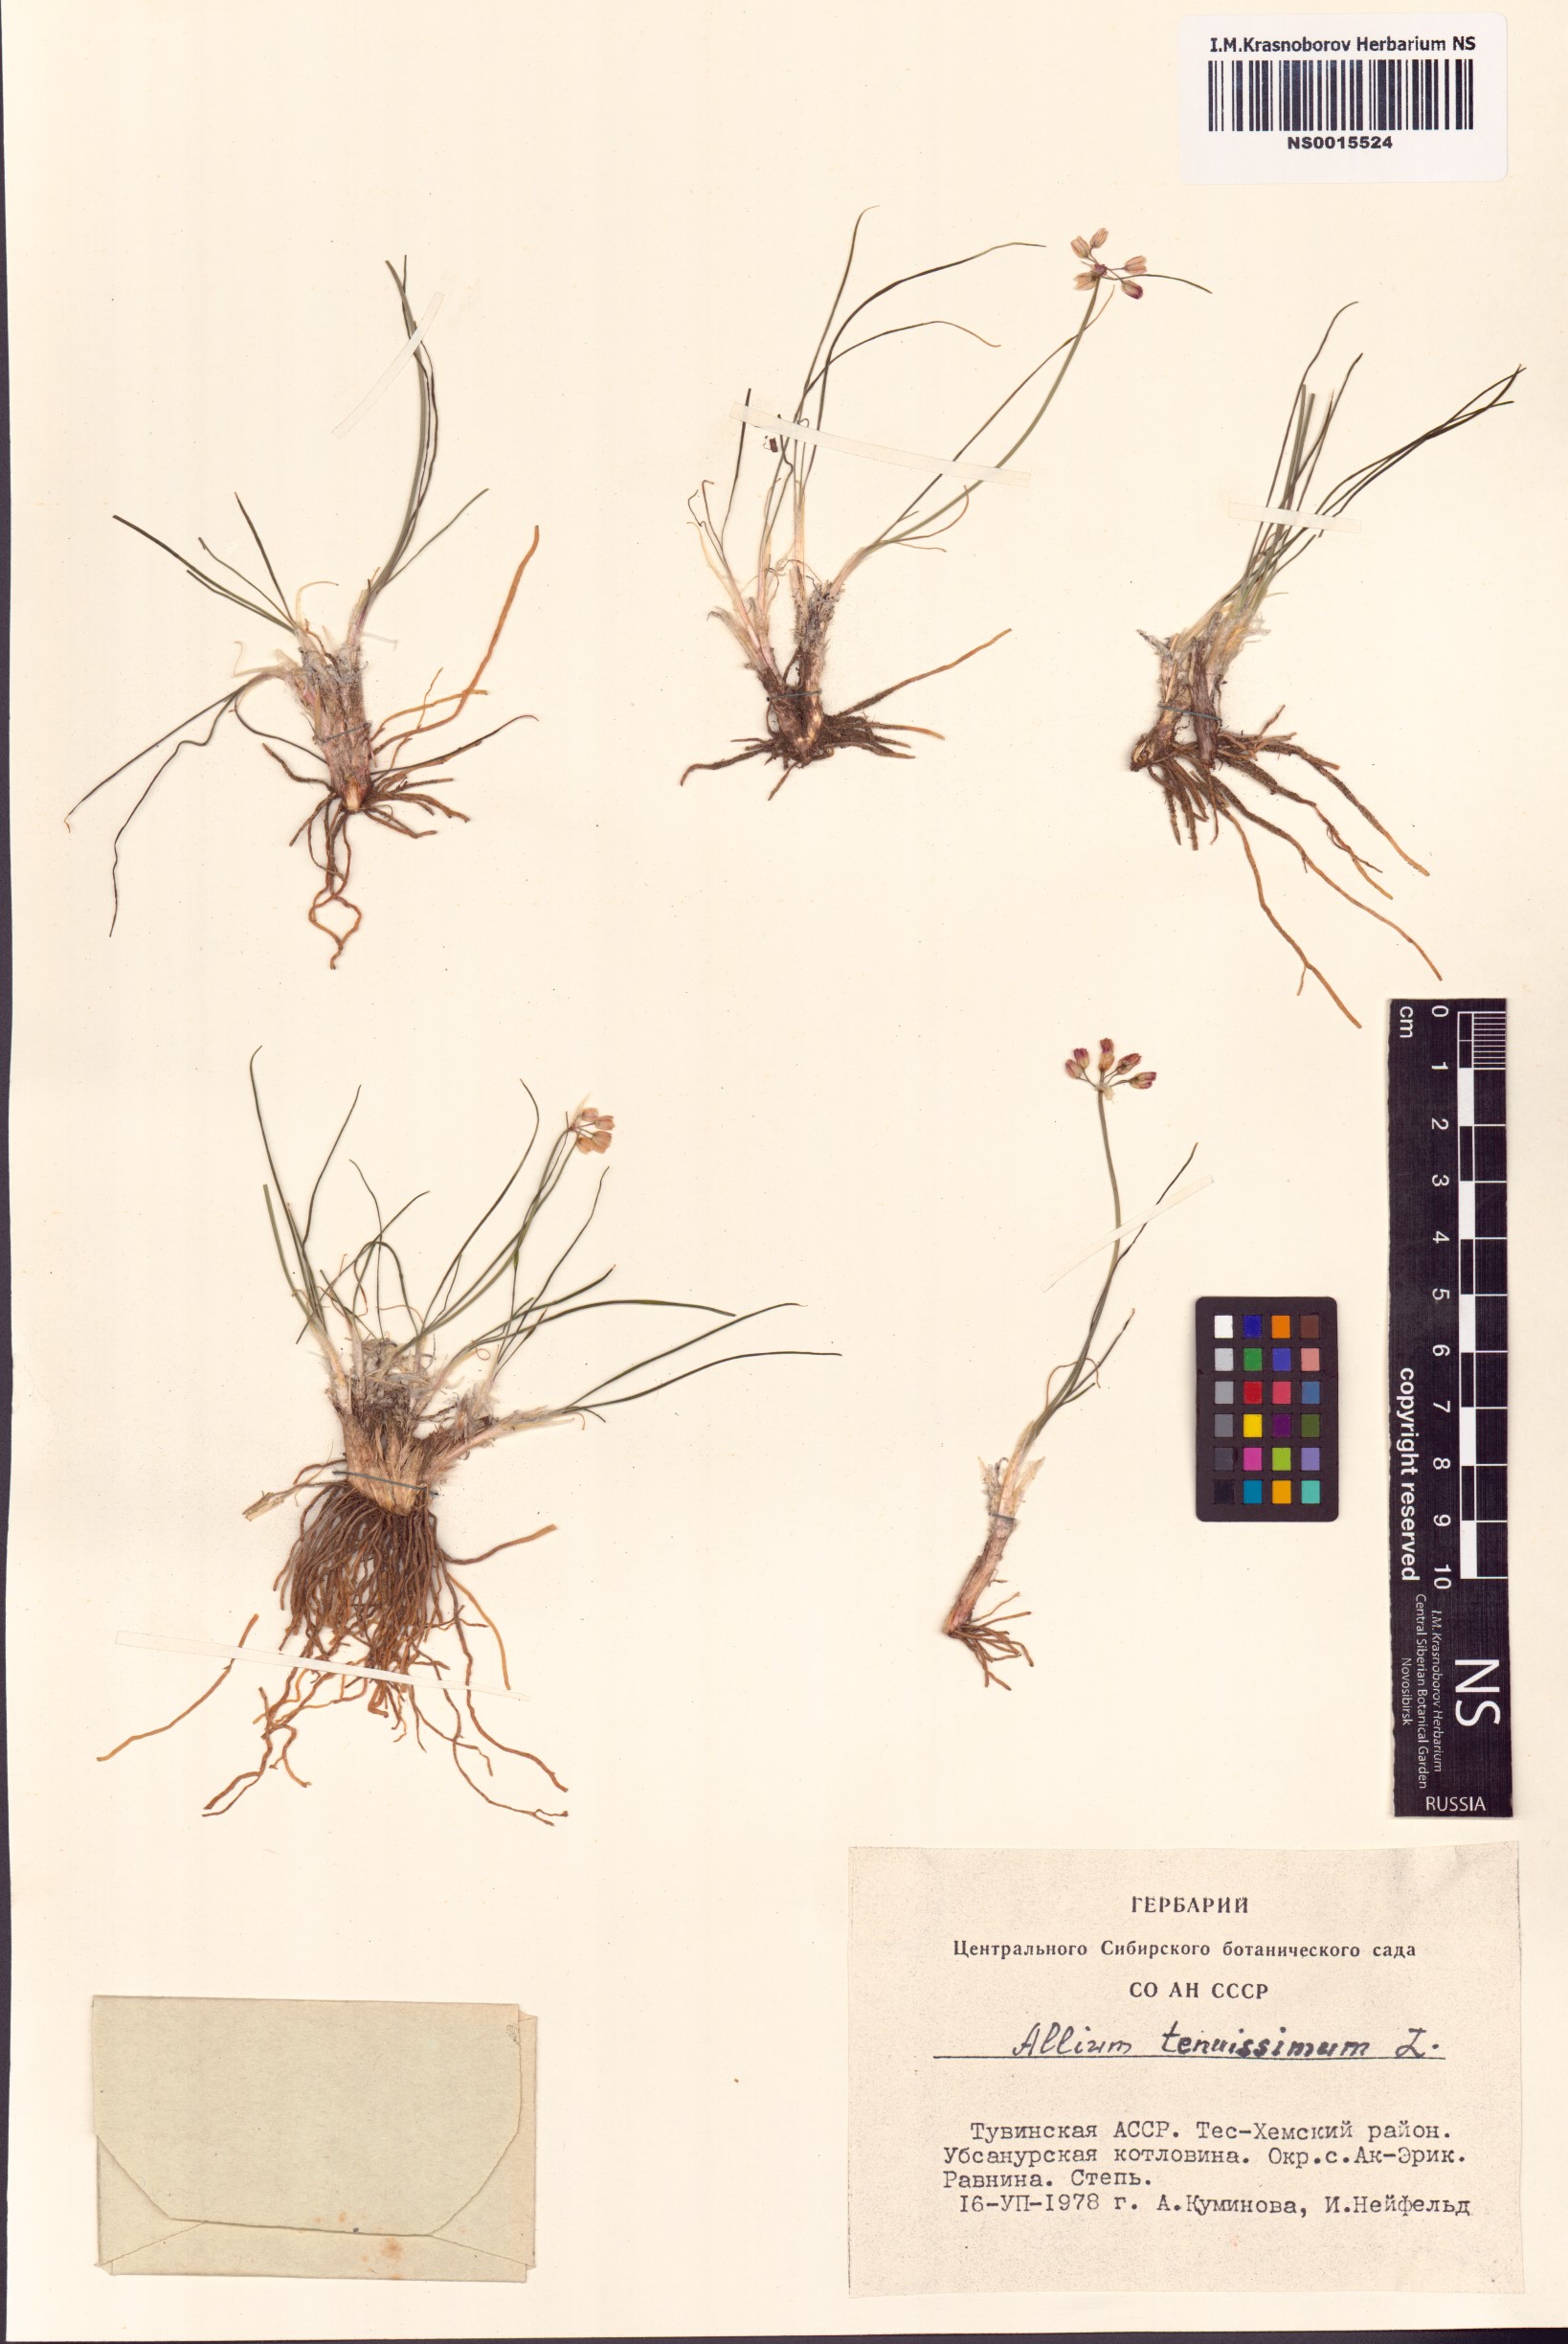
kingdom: Plantae
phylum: Tracheophyta
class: Liliopsida
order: Asparagales
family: Amaryllidaceae
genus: Allium
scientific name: Allium tenuissimum
